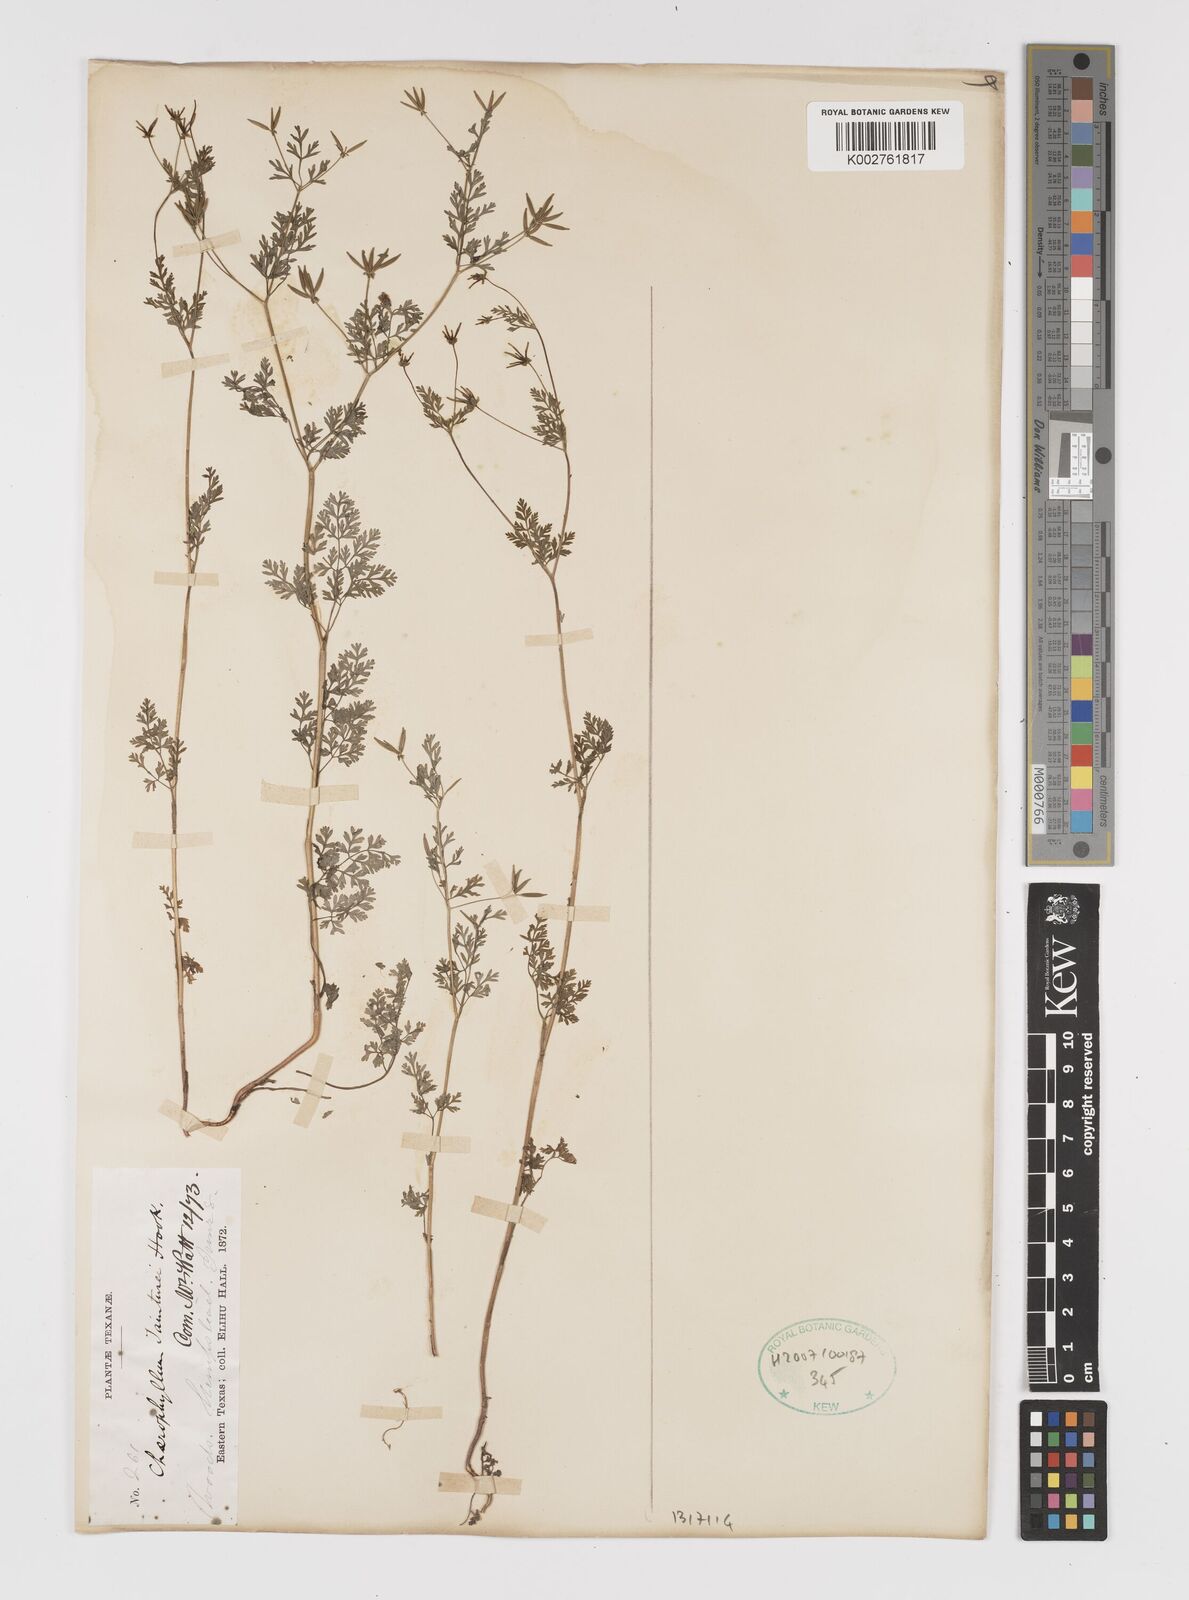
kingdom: Plantae
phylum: Tracheophyta
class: Magnoliopsida
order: Apiales
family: Apiaceae
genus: Chaerophyllum
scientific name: Chaerophyllum tainturieri
